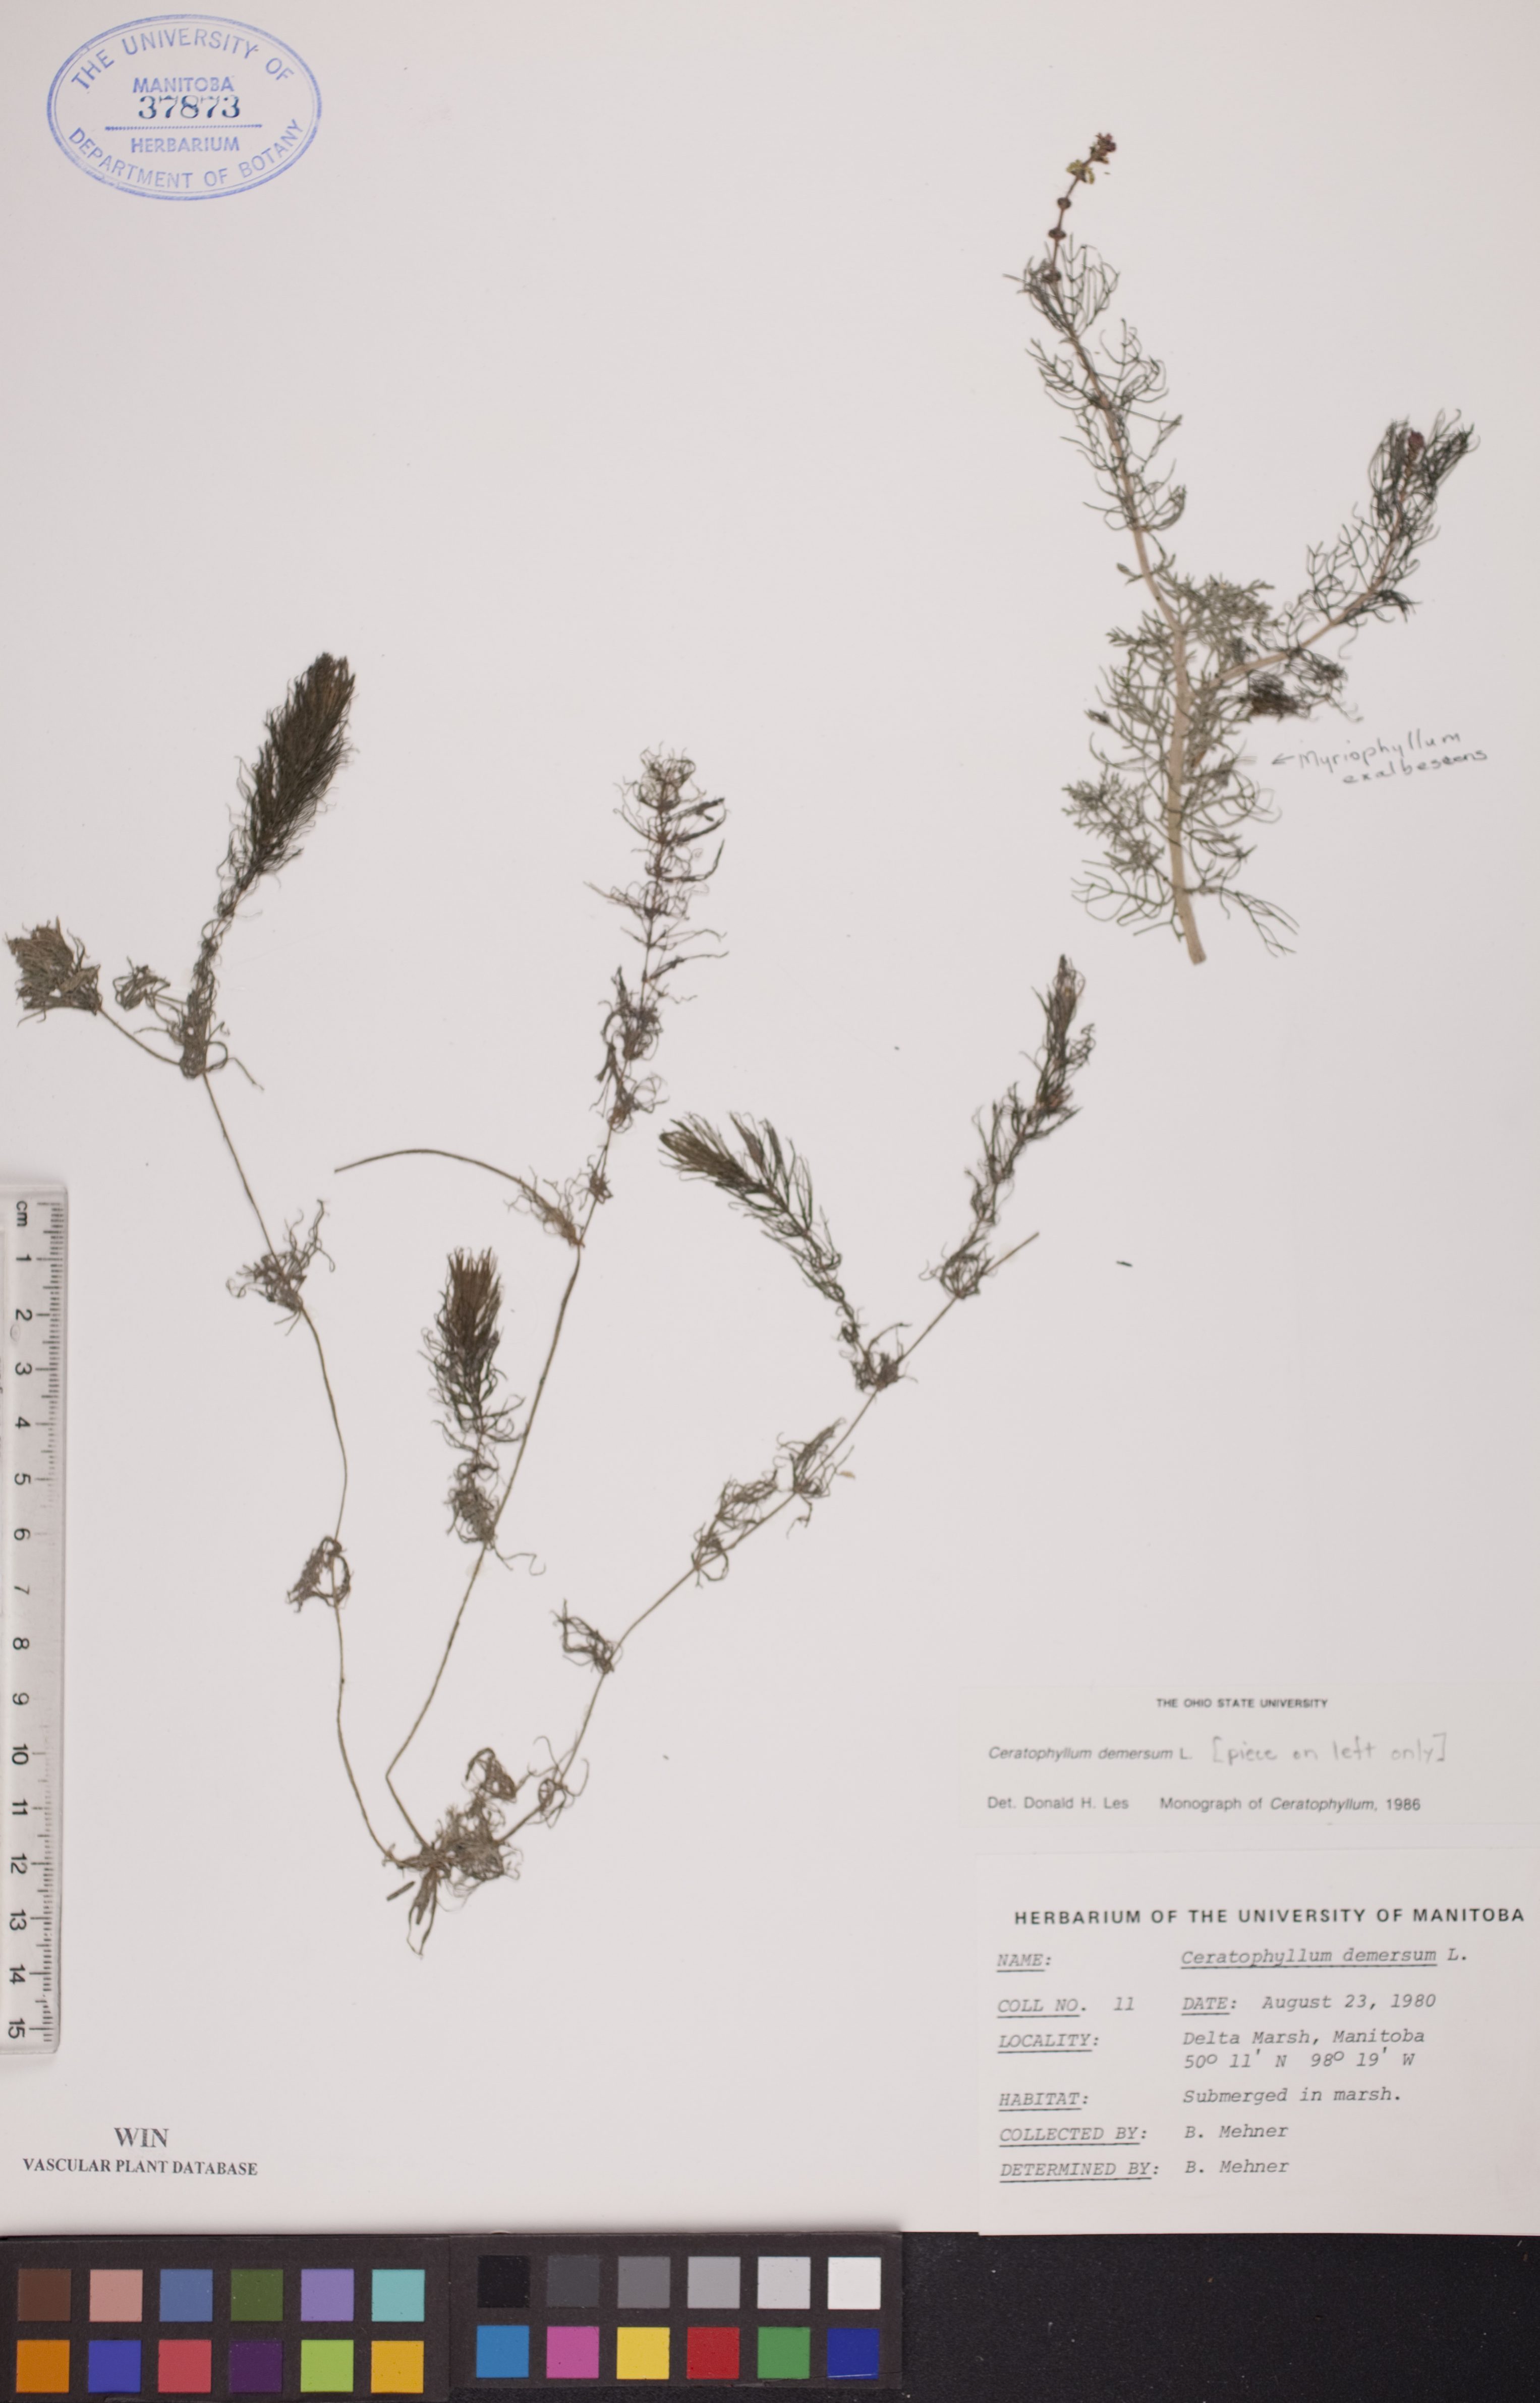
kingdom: Plantae
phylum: Tracheophyta
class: Magnoliopsida
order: Ceratophyllales
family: Ceratophyllaceae
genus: Ceratophyllum
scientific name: Ceratophyllum demersum
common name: Rigid hornwort
